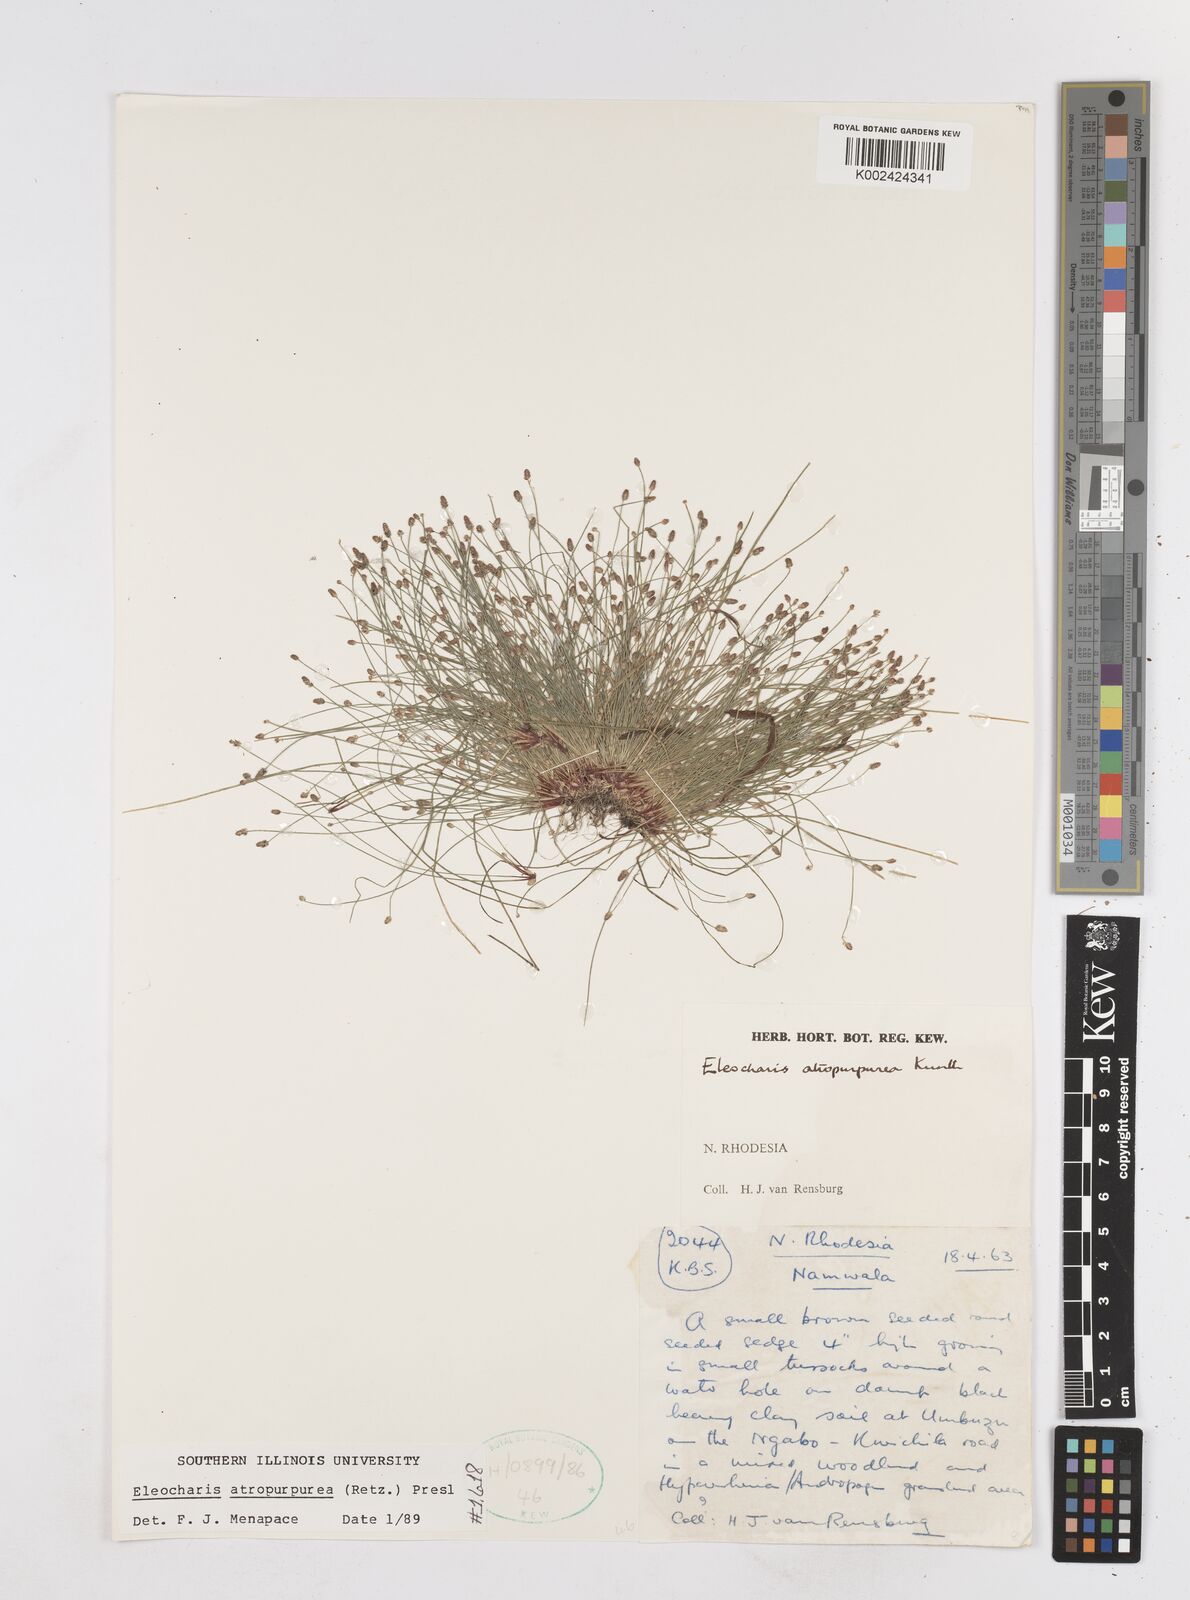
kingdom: Plantae
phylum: Tracheophyta
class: Liliopsida
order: Poales
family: Cyperaceae
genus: Eleocharis
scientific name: Eleocharis atropurpurea
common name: Purple spikerush
